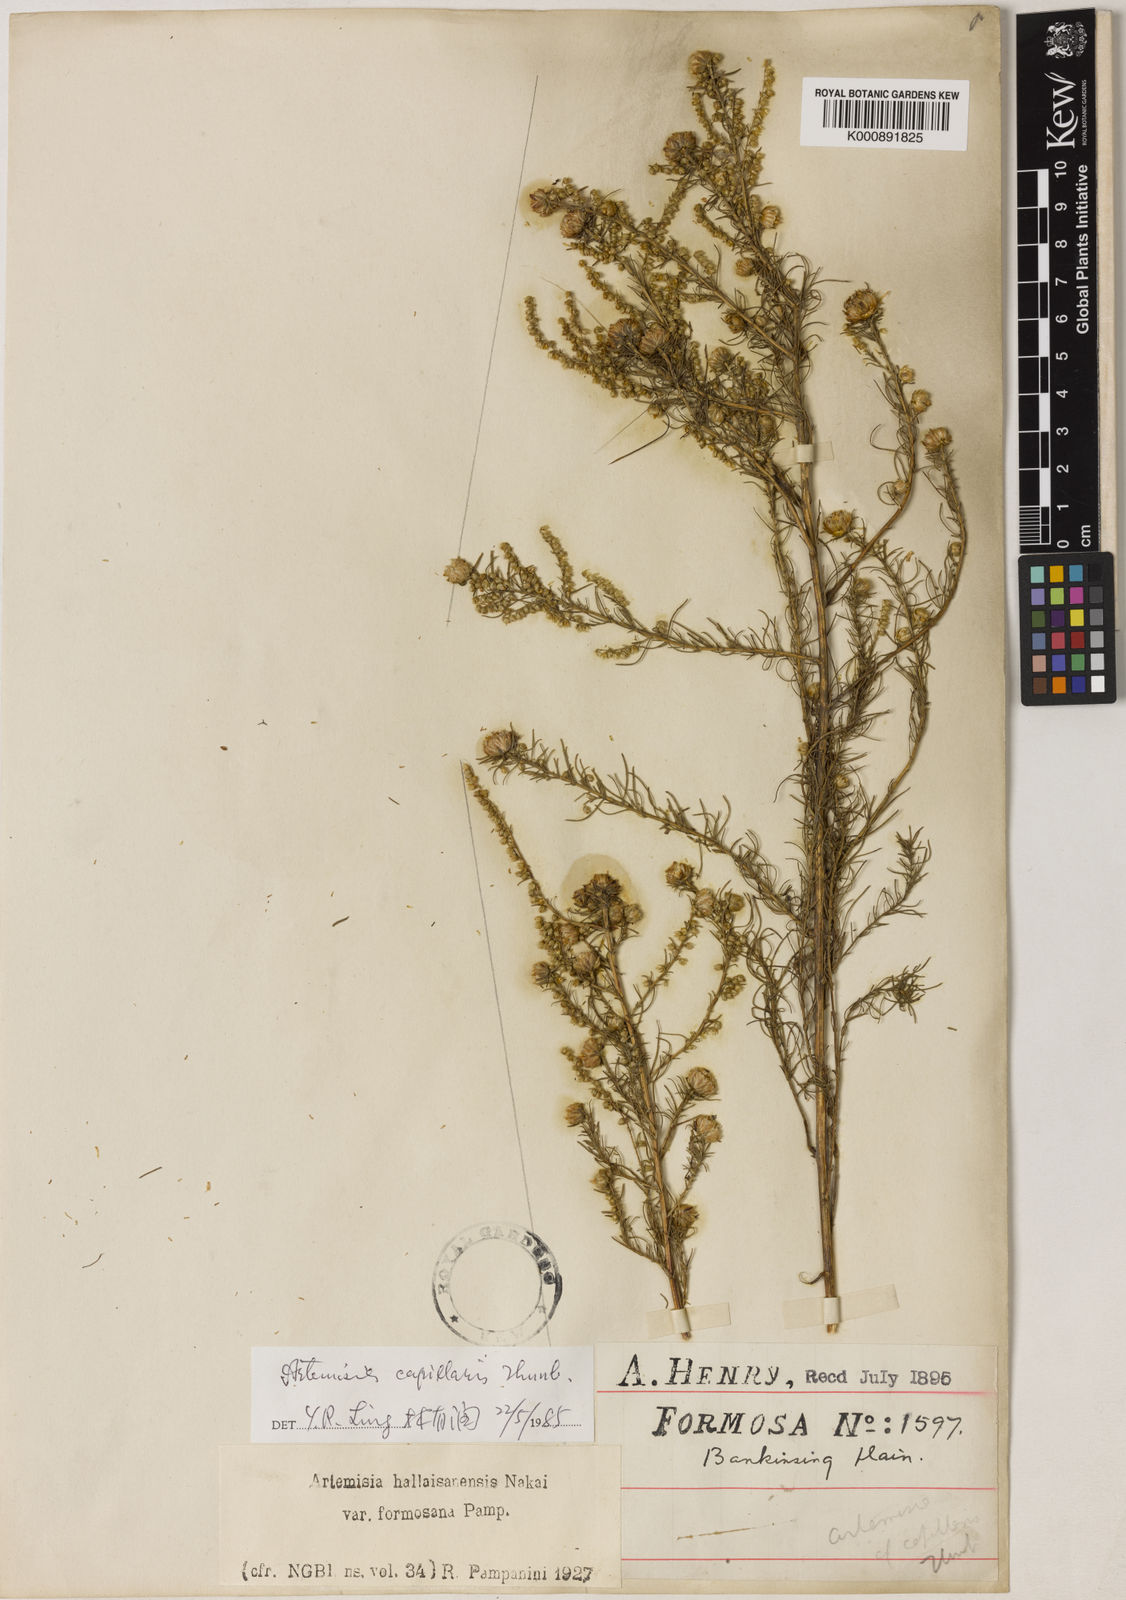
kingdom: Plantae
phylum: Tracheophyta
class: Magnoliopsida
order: Asterales
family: Asteraceae
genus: Artemisia
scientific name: Artemisia capillaris
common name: Yin-chen wormwood
